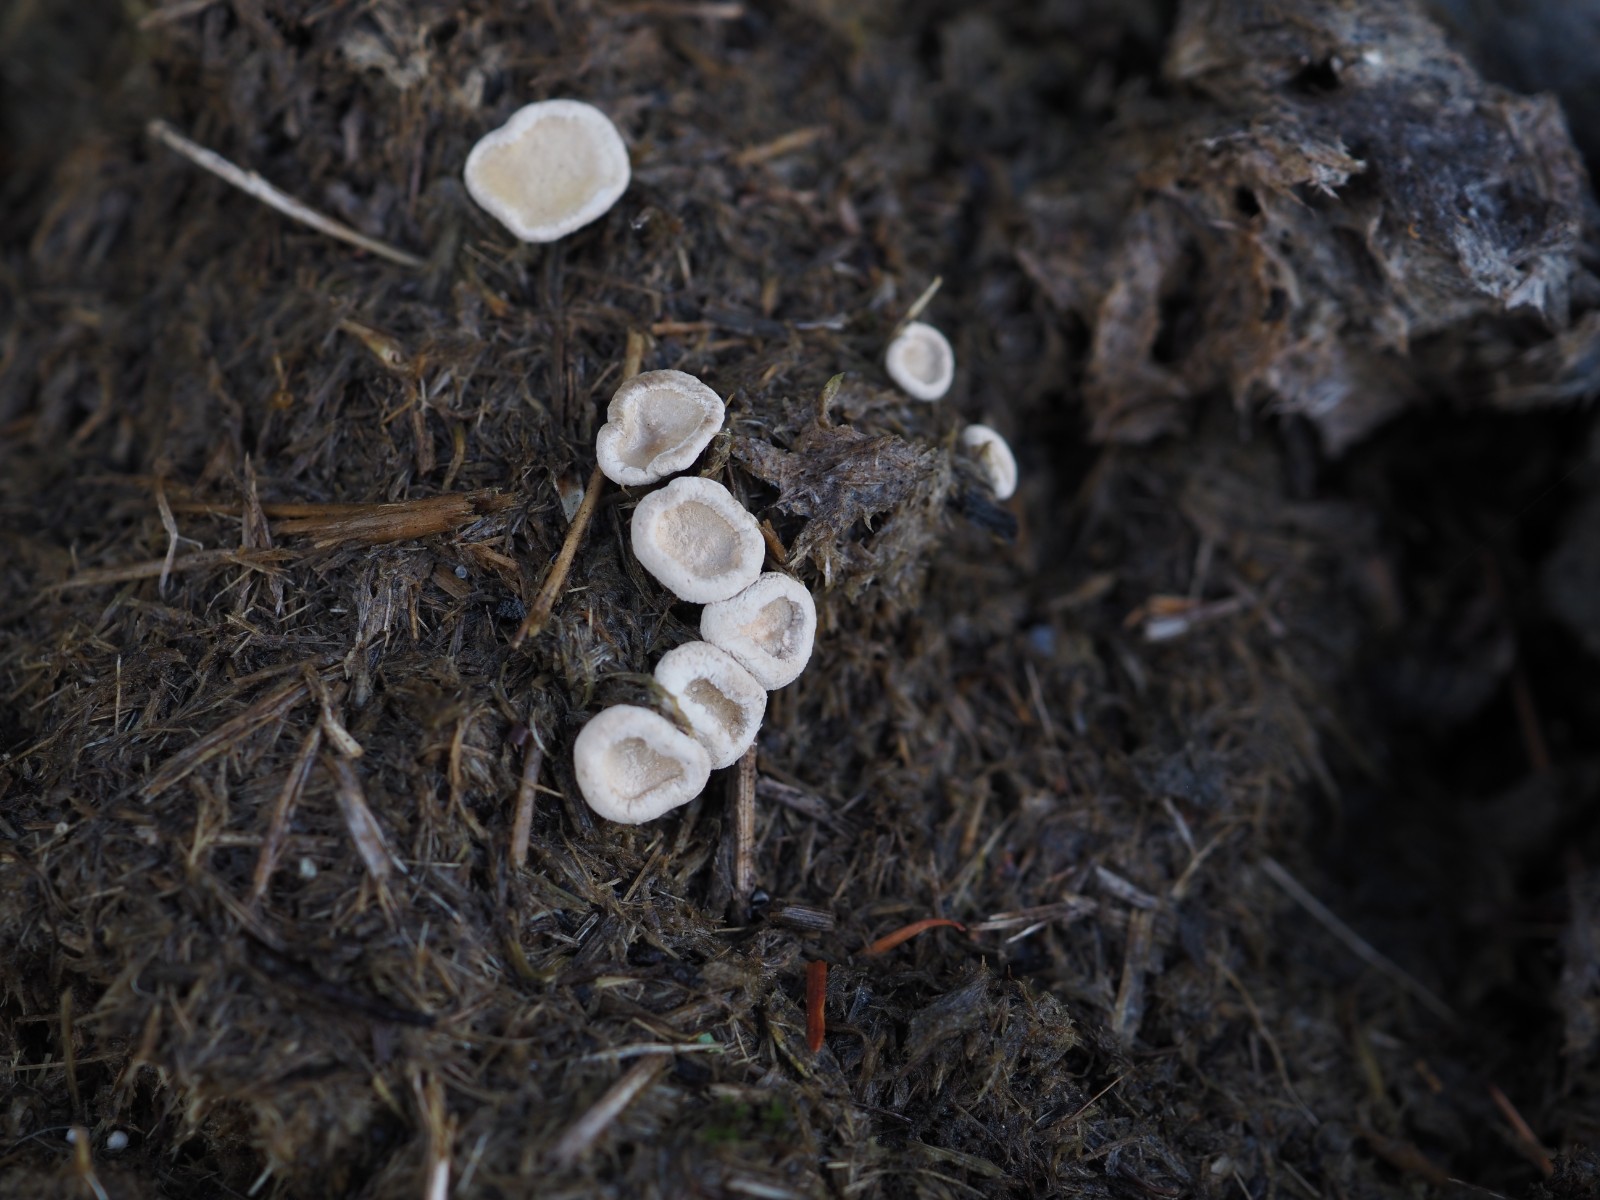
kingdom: Fungi
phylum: Ascomycota
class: Sordariomycetes
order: Xylariales
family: Xylariaceae
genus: Poronia
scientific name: Poronia punctata
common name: stor priksvamp
